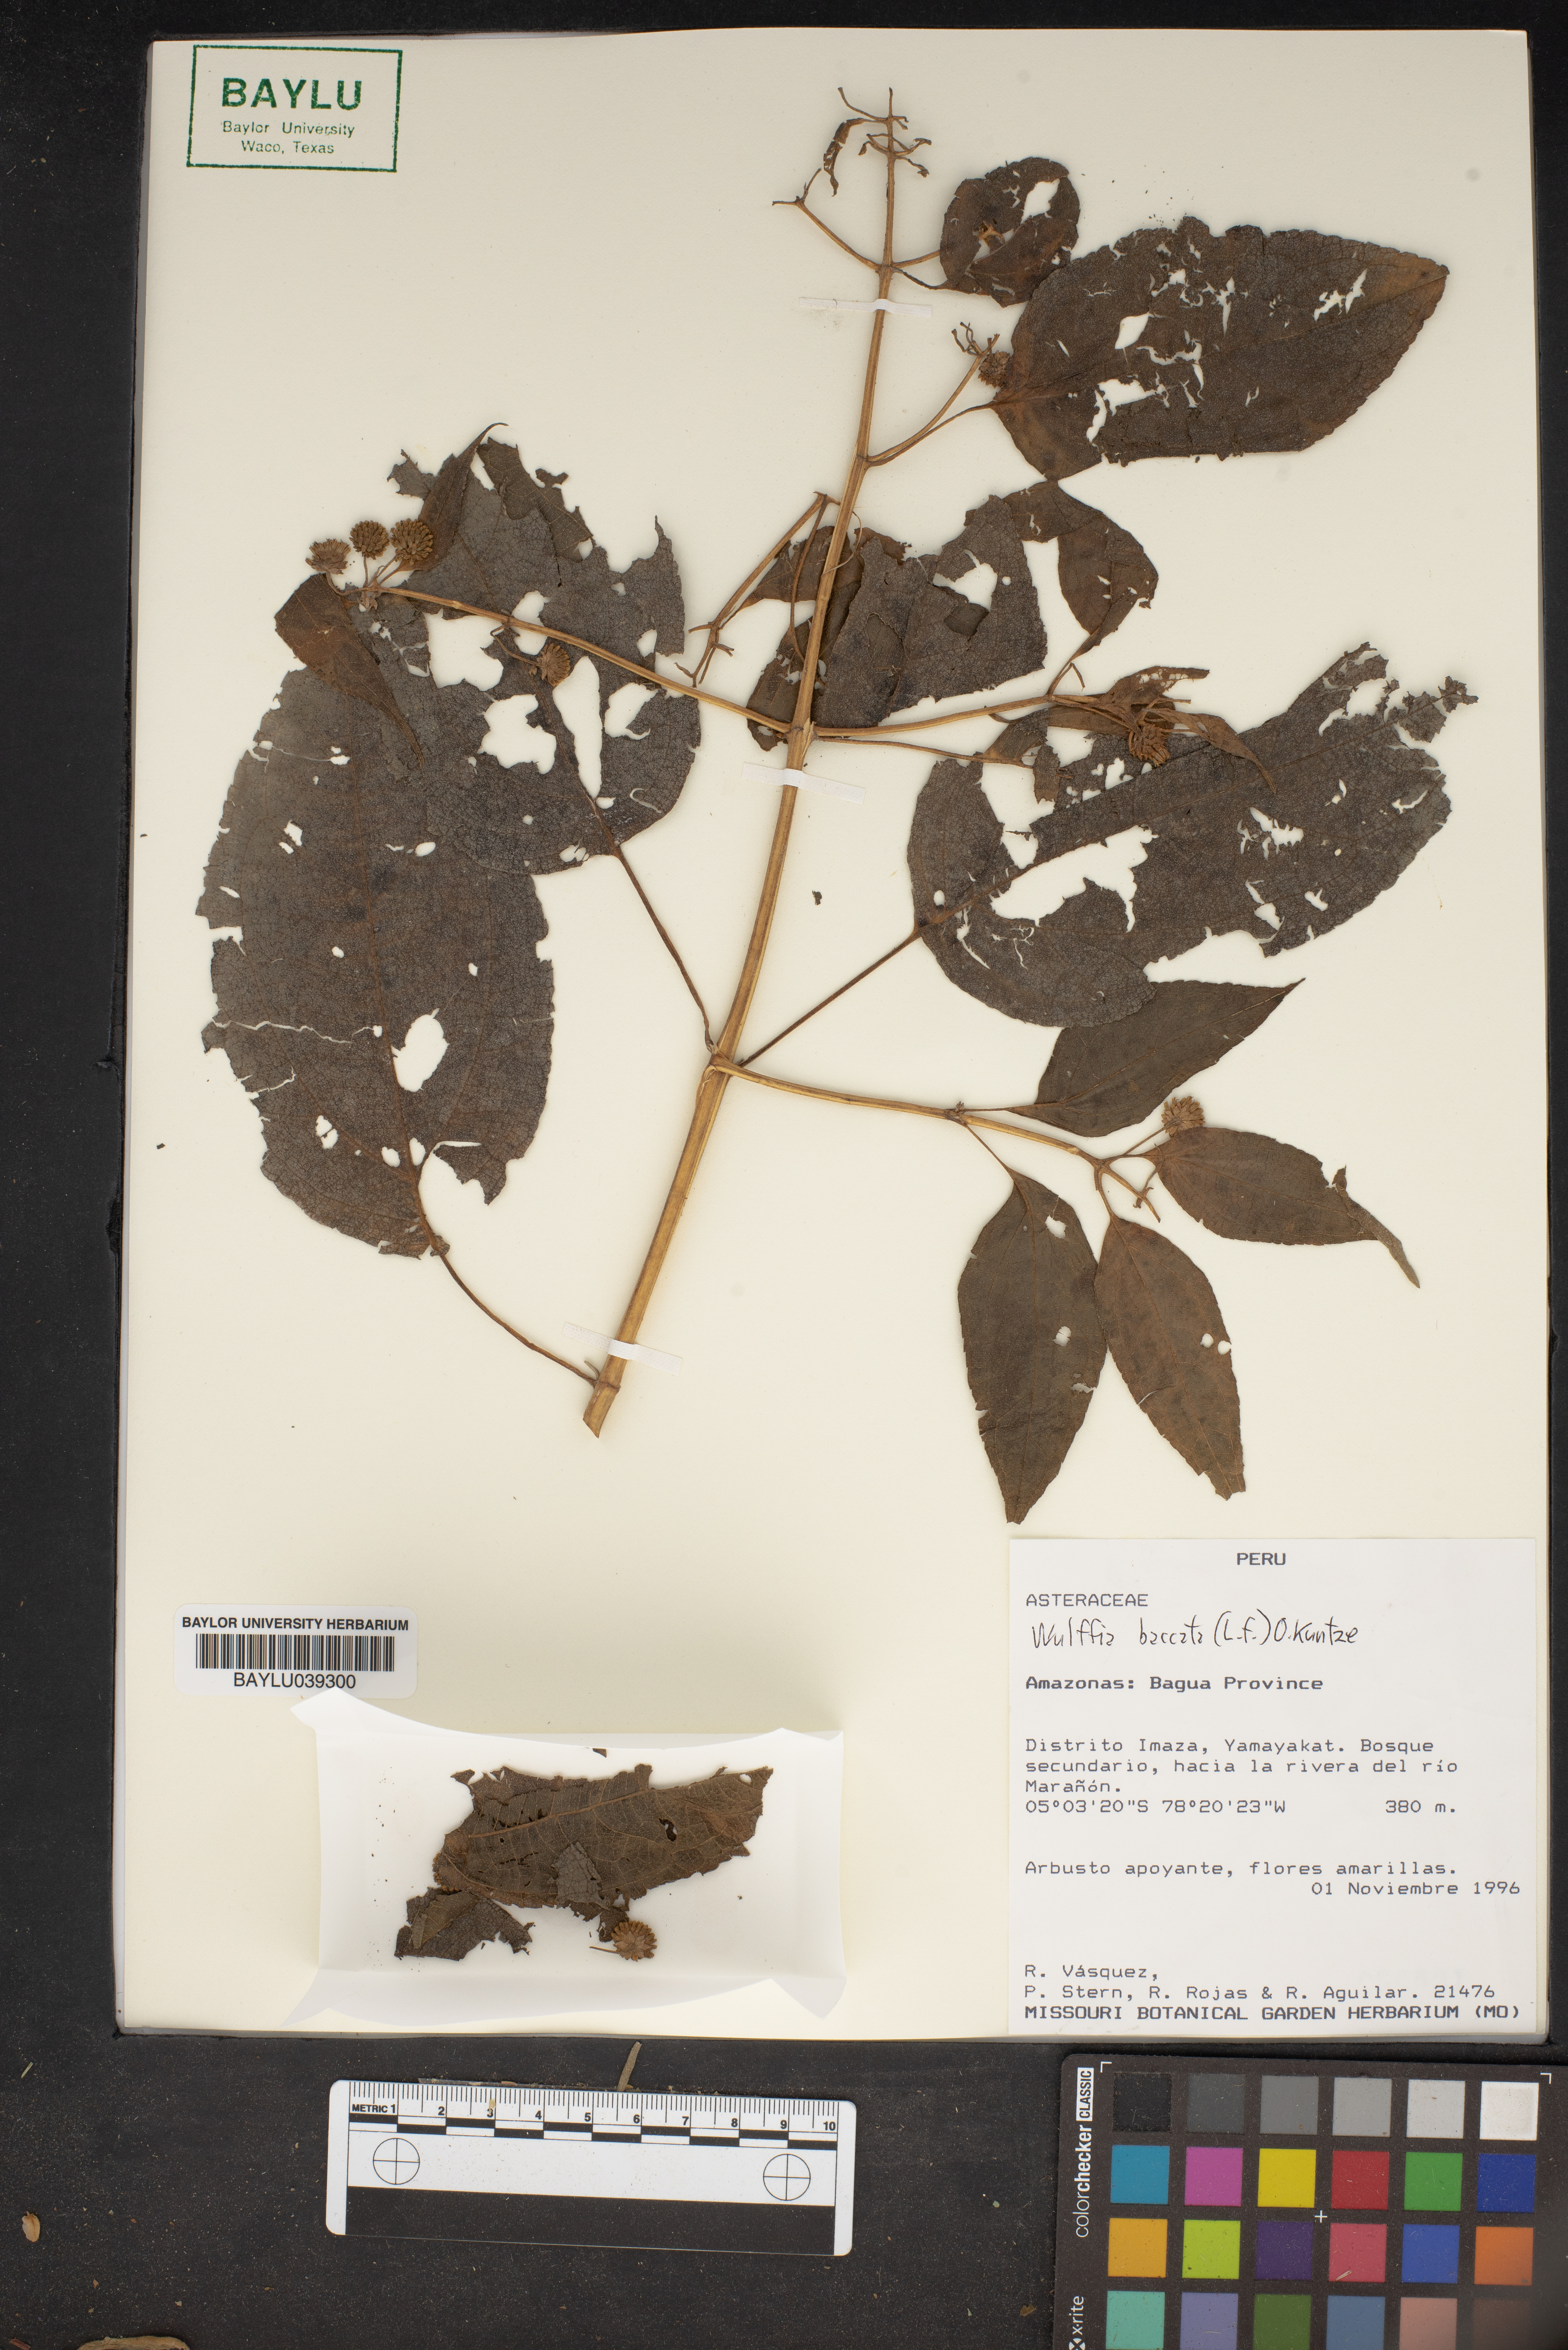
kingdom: Plantae
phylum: Tracheophyta
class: Magnoliopsida
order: Asterales
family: Asteraceae
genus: Tilesia
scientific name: Tilesia baccata
